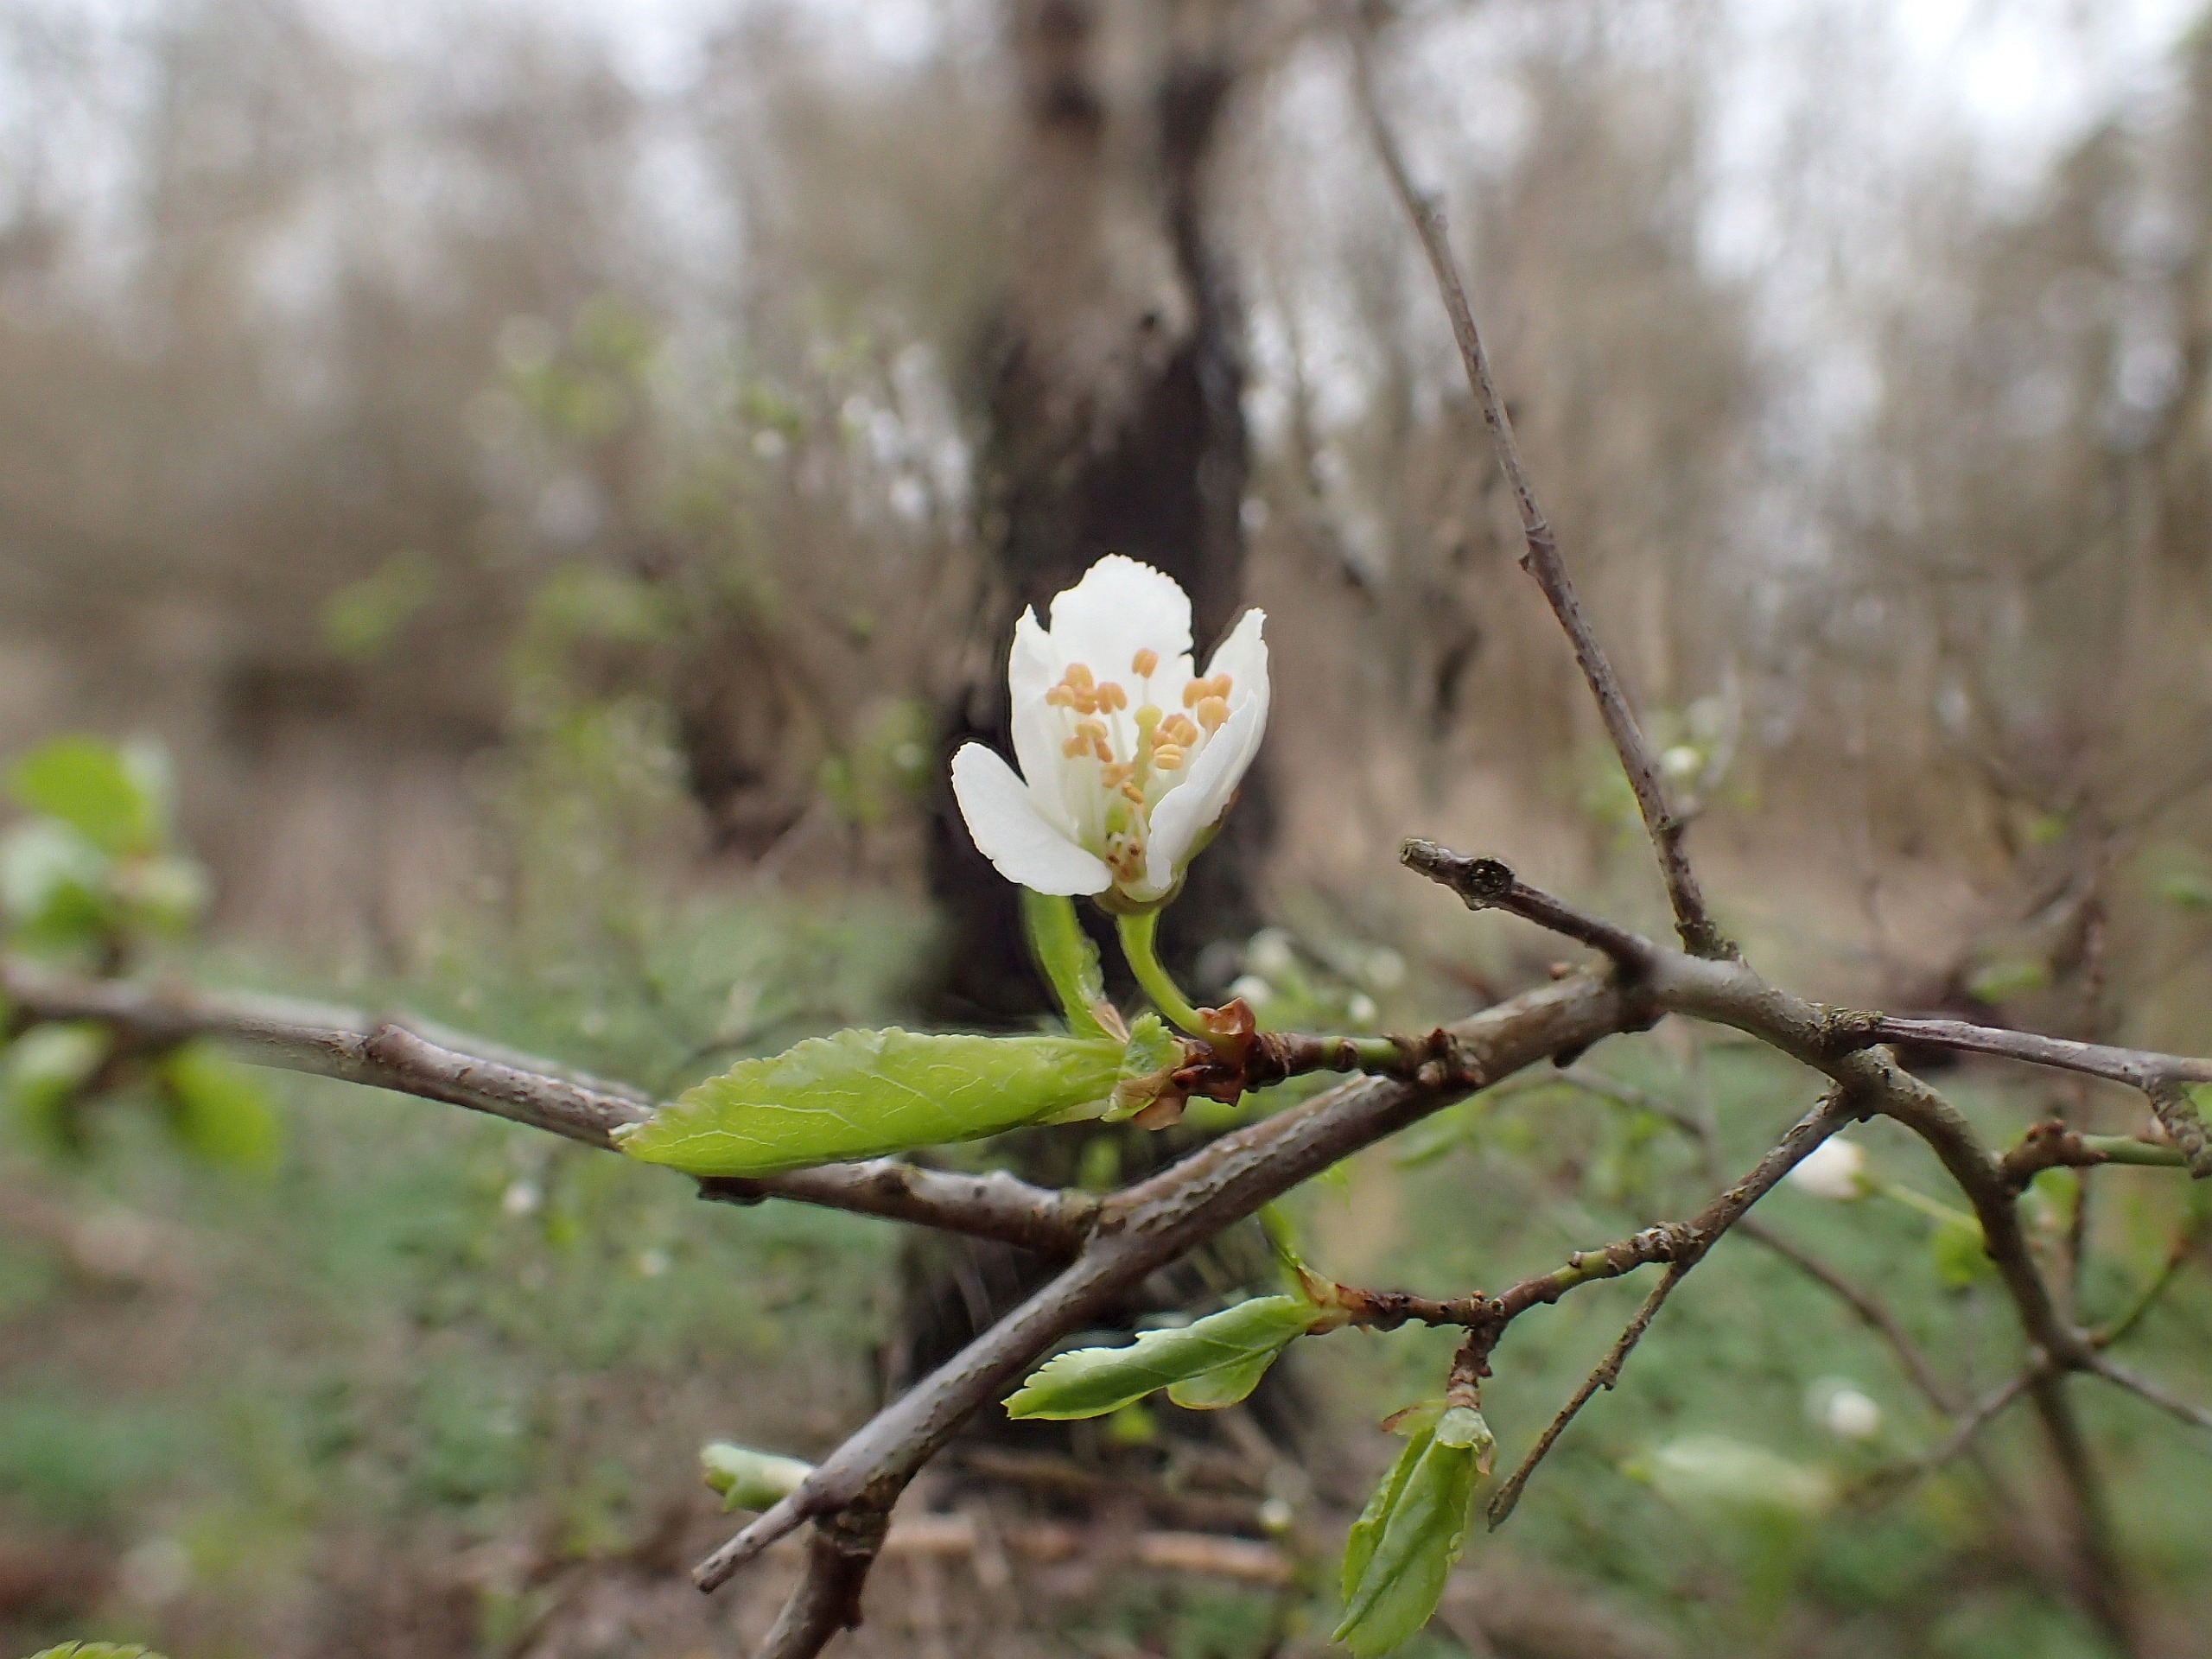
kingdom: Plantae
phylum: Tracheophyta
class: Magnoliopsida
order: Rosales
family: Rosaceae
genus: Prunus
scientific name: Prunus cerasifera
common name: Mirabel
